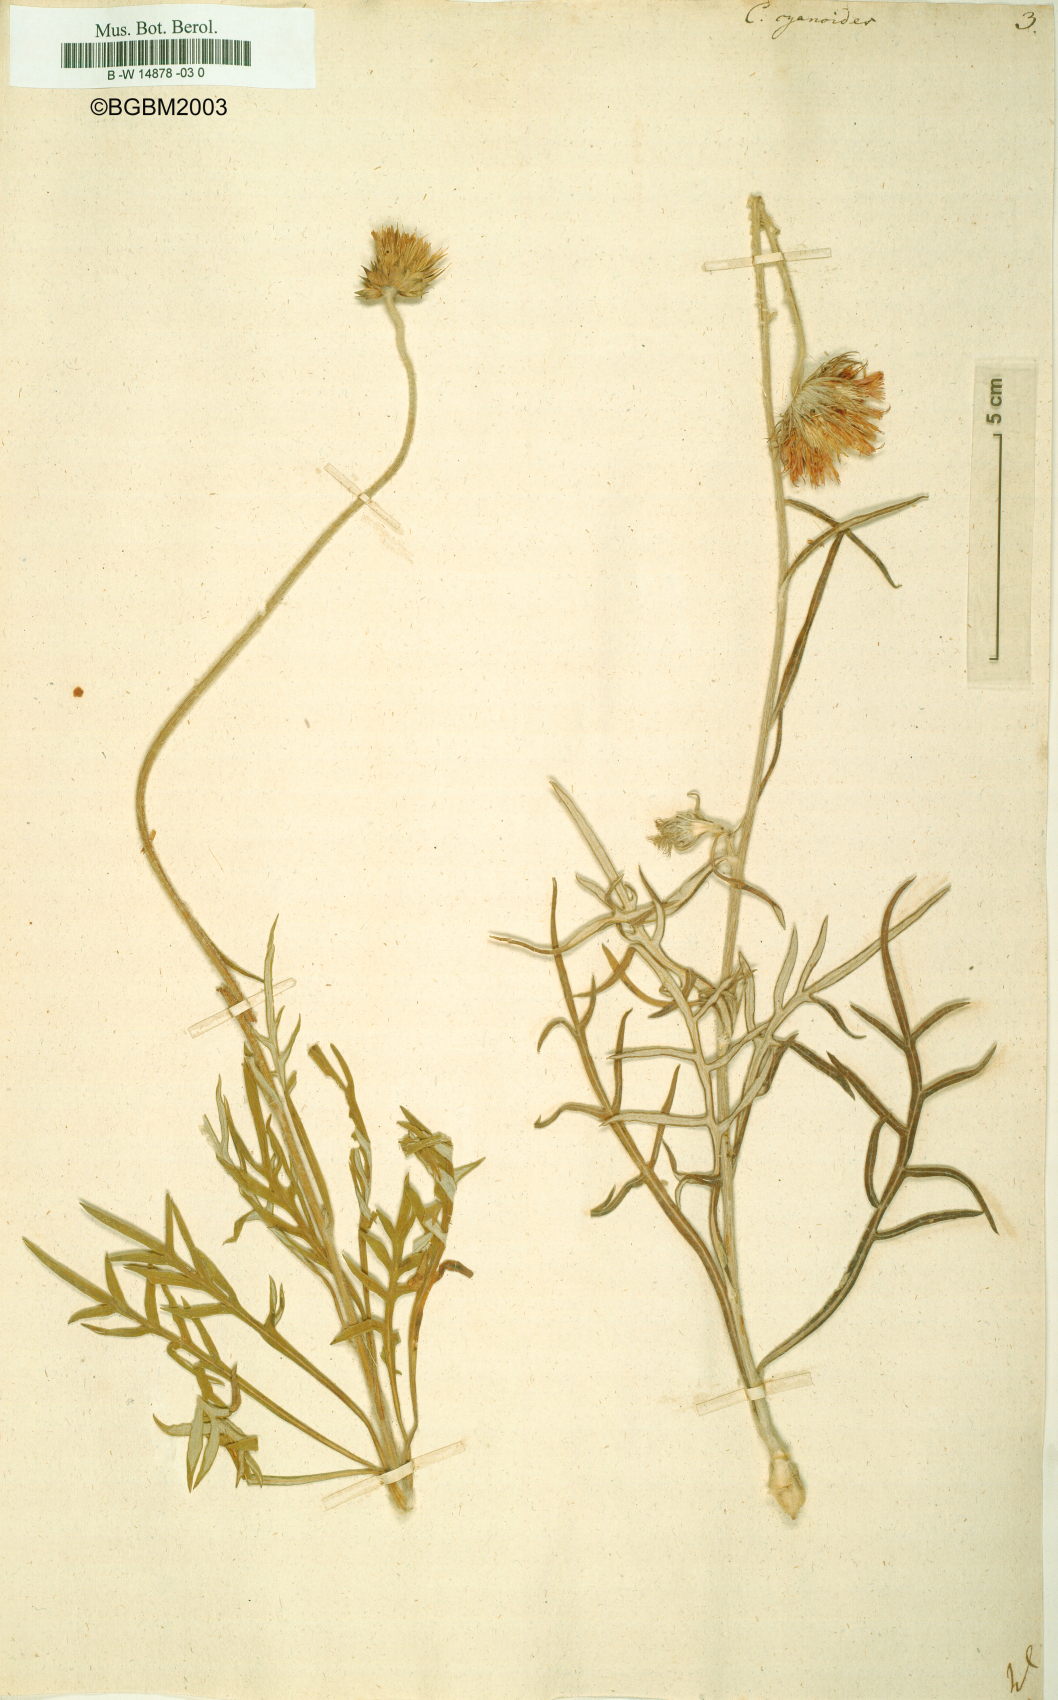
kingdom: Plantae
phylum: Tracheophyta
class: Magnoliopsida
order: Asterales
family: Asteraceae
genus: Jurinea
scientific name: Jurinea
